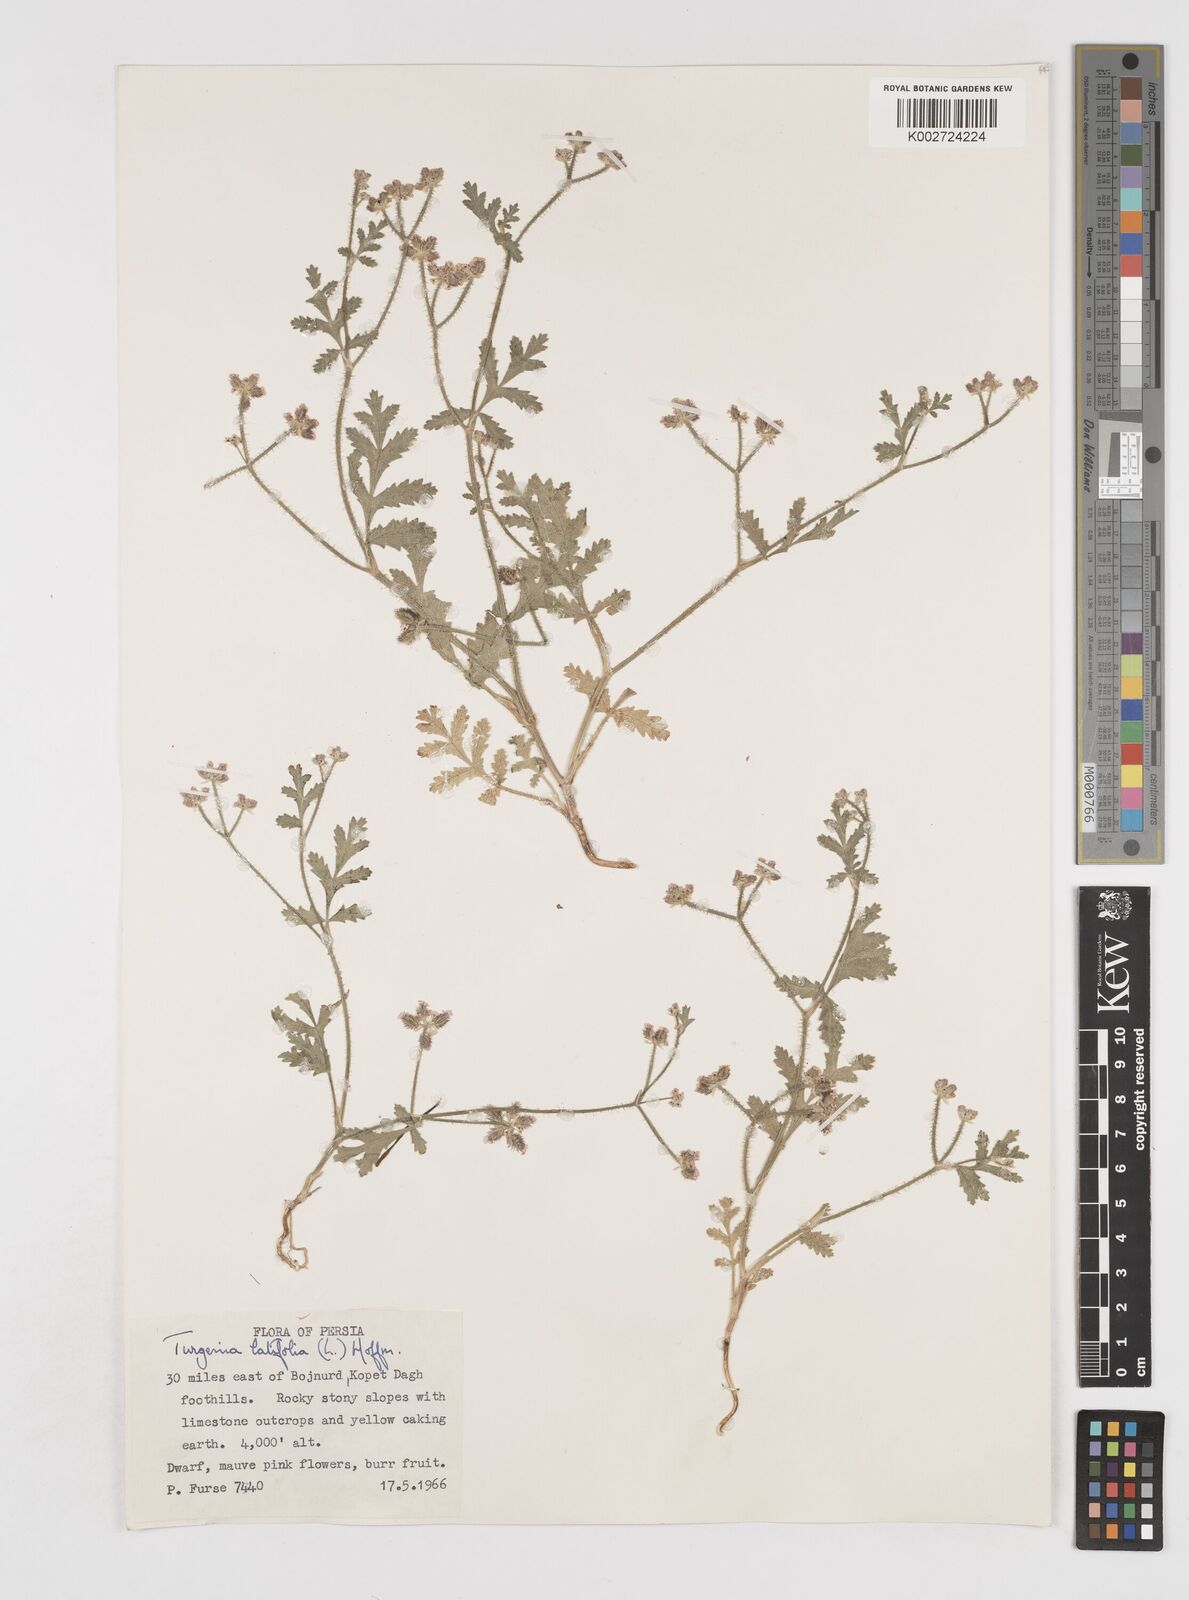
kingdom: Plantae
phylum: Tracheophyta
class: Magnoliopsida
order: Apiales
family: Apiaceae
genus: Turgenia
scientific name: Turgenia latifolia
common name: Greater bur-parsley
